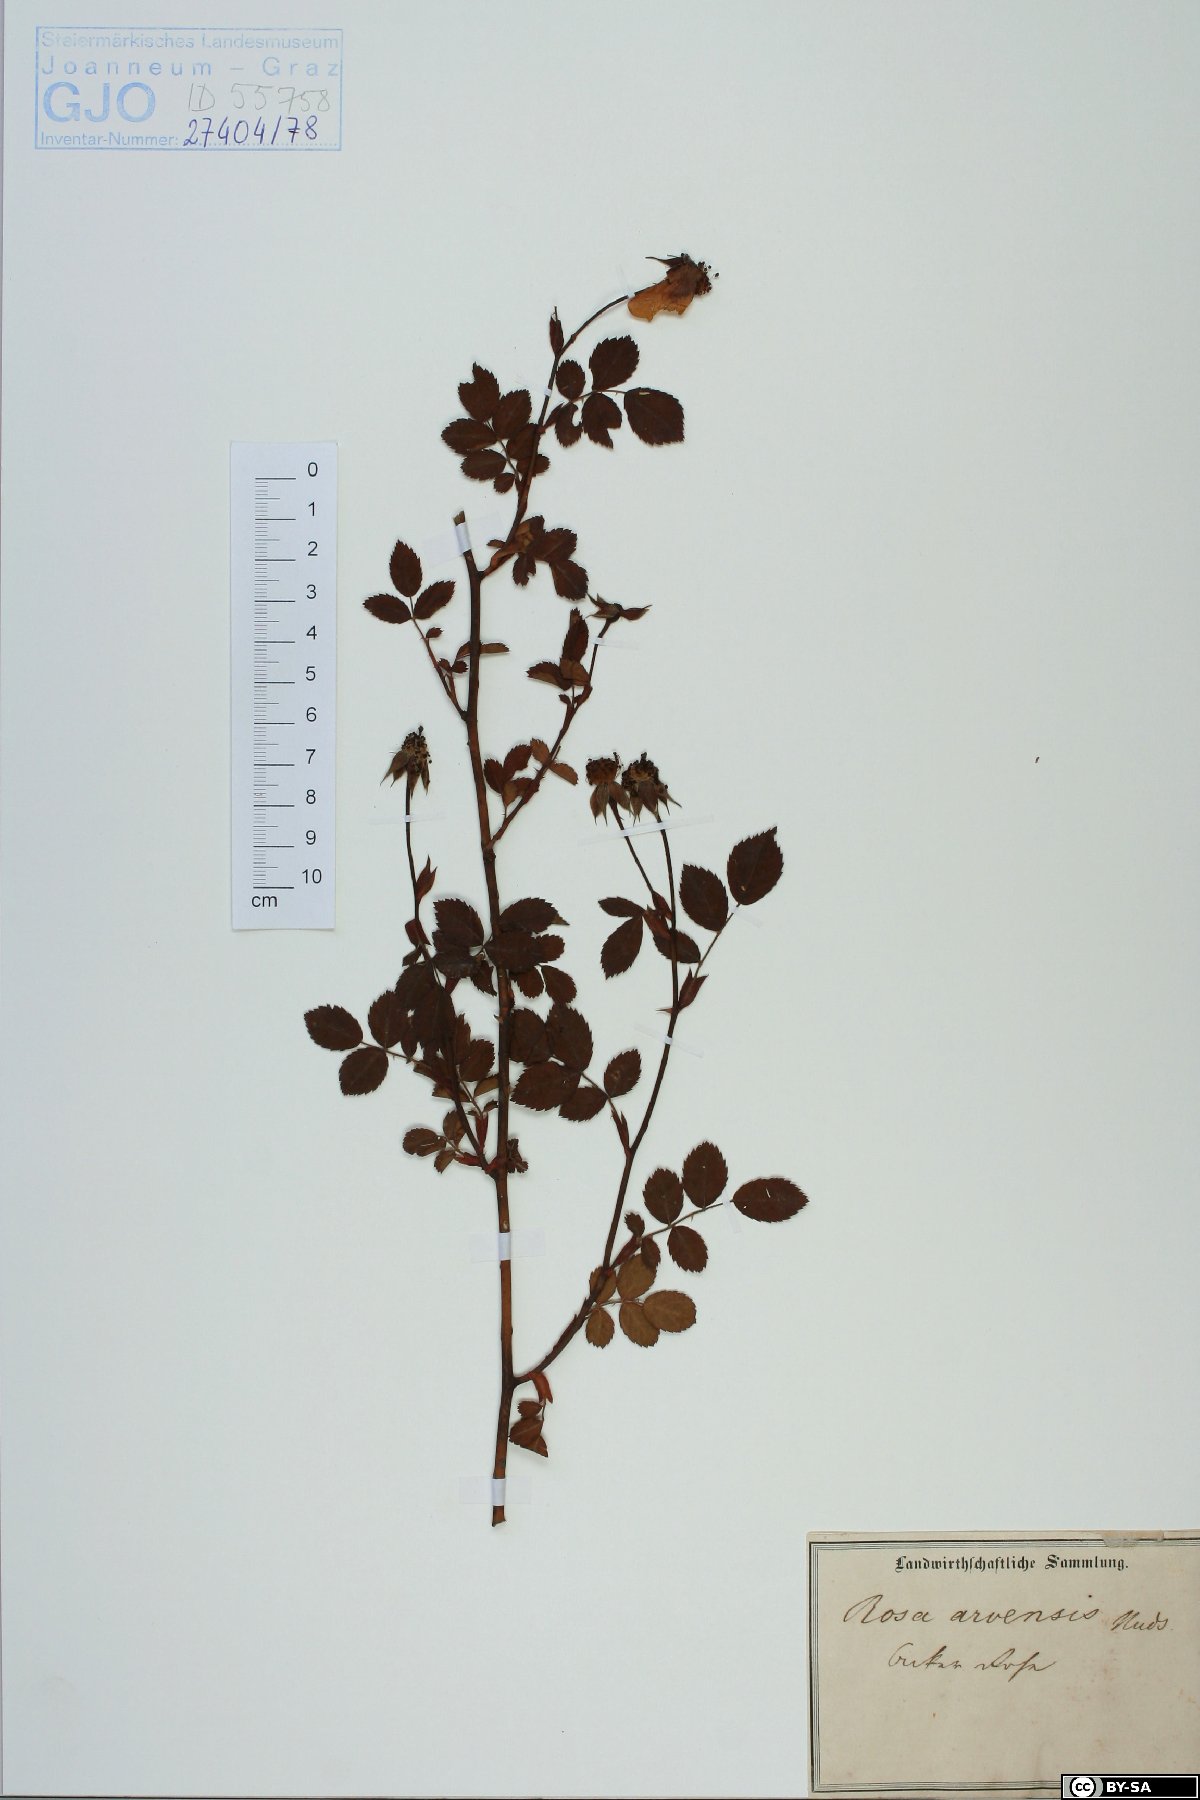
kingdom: Plantae
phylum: Tracheophyta
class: Magnoliopsida
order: Rosales
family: Rosaceae
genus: Rosa
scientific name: Rosa arvensis
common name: Field rose
